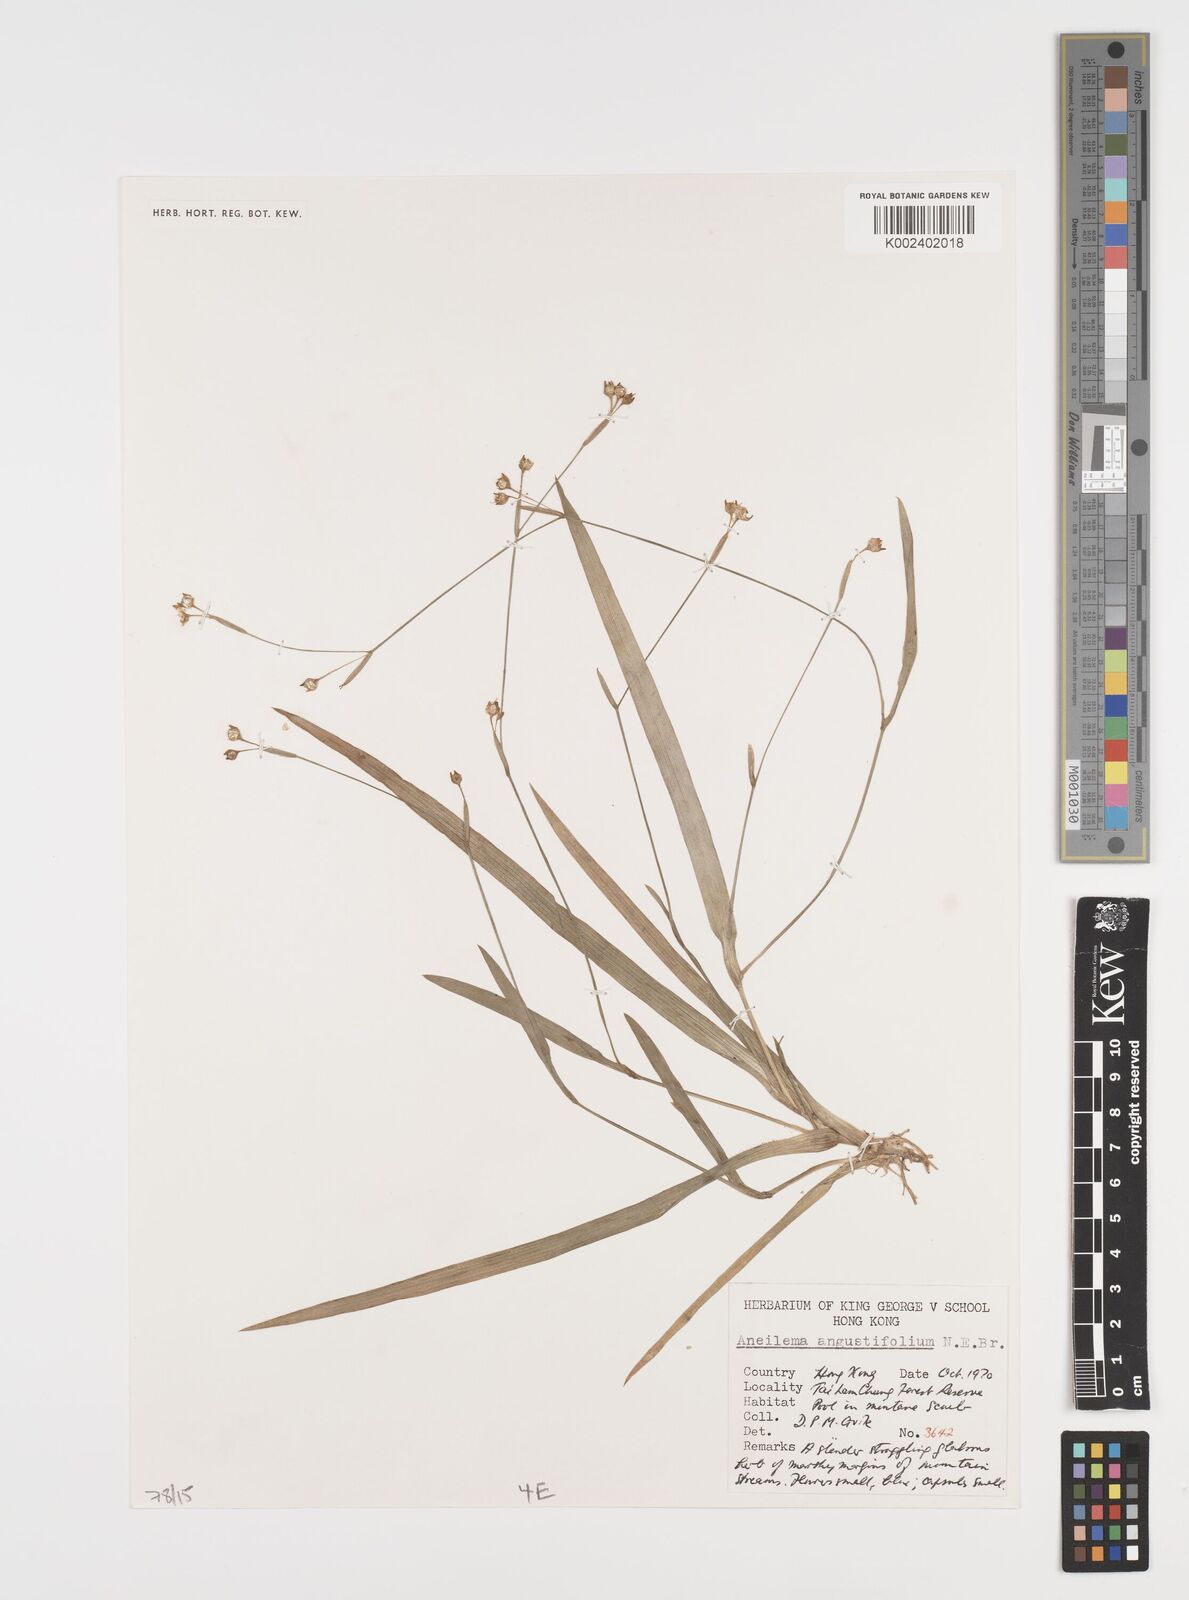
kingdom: Plantae
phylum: Tracheophyta
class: Liliopsida
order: Commelinales
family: Commelinaceae
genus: Murdannia
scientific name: Murdannia loriformis
